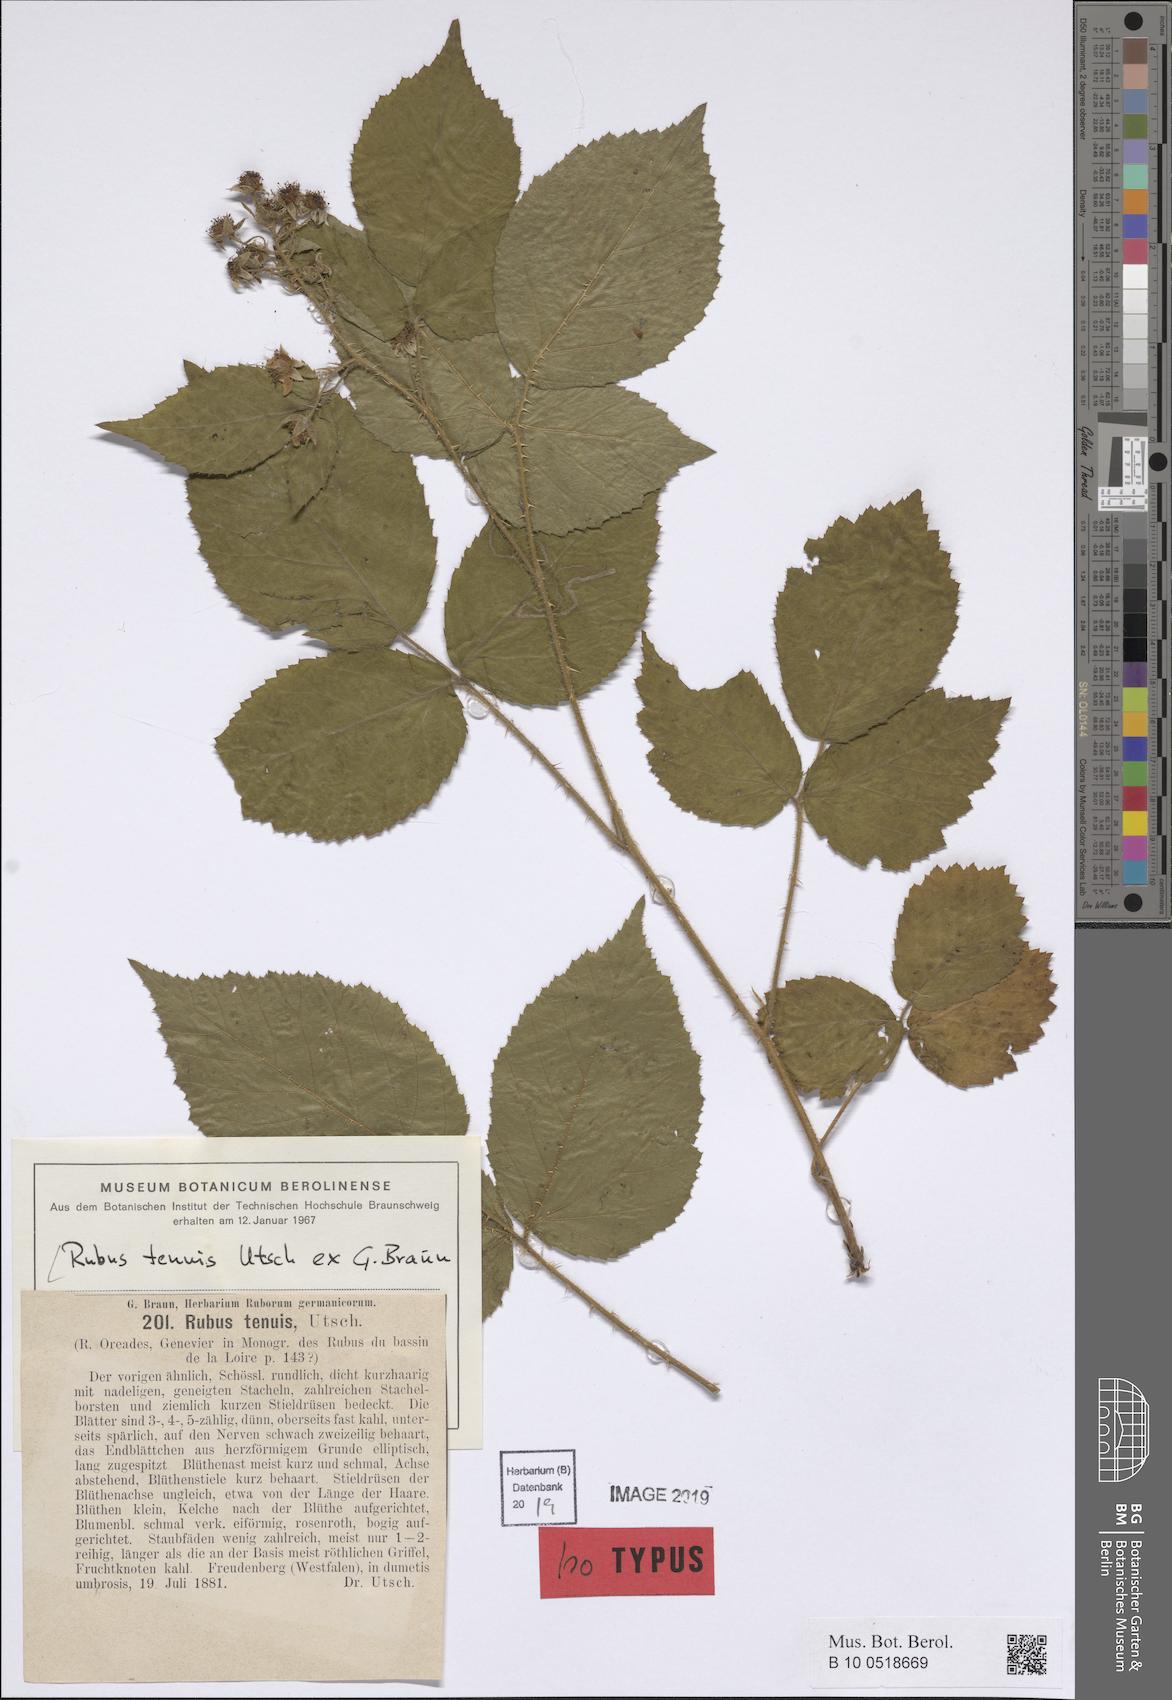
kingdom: Plantae
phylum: Tracheophyta
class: Magnoliopsida
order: Rosales
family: Rosaceae
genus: Rubus
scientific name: Rubus tenuis
